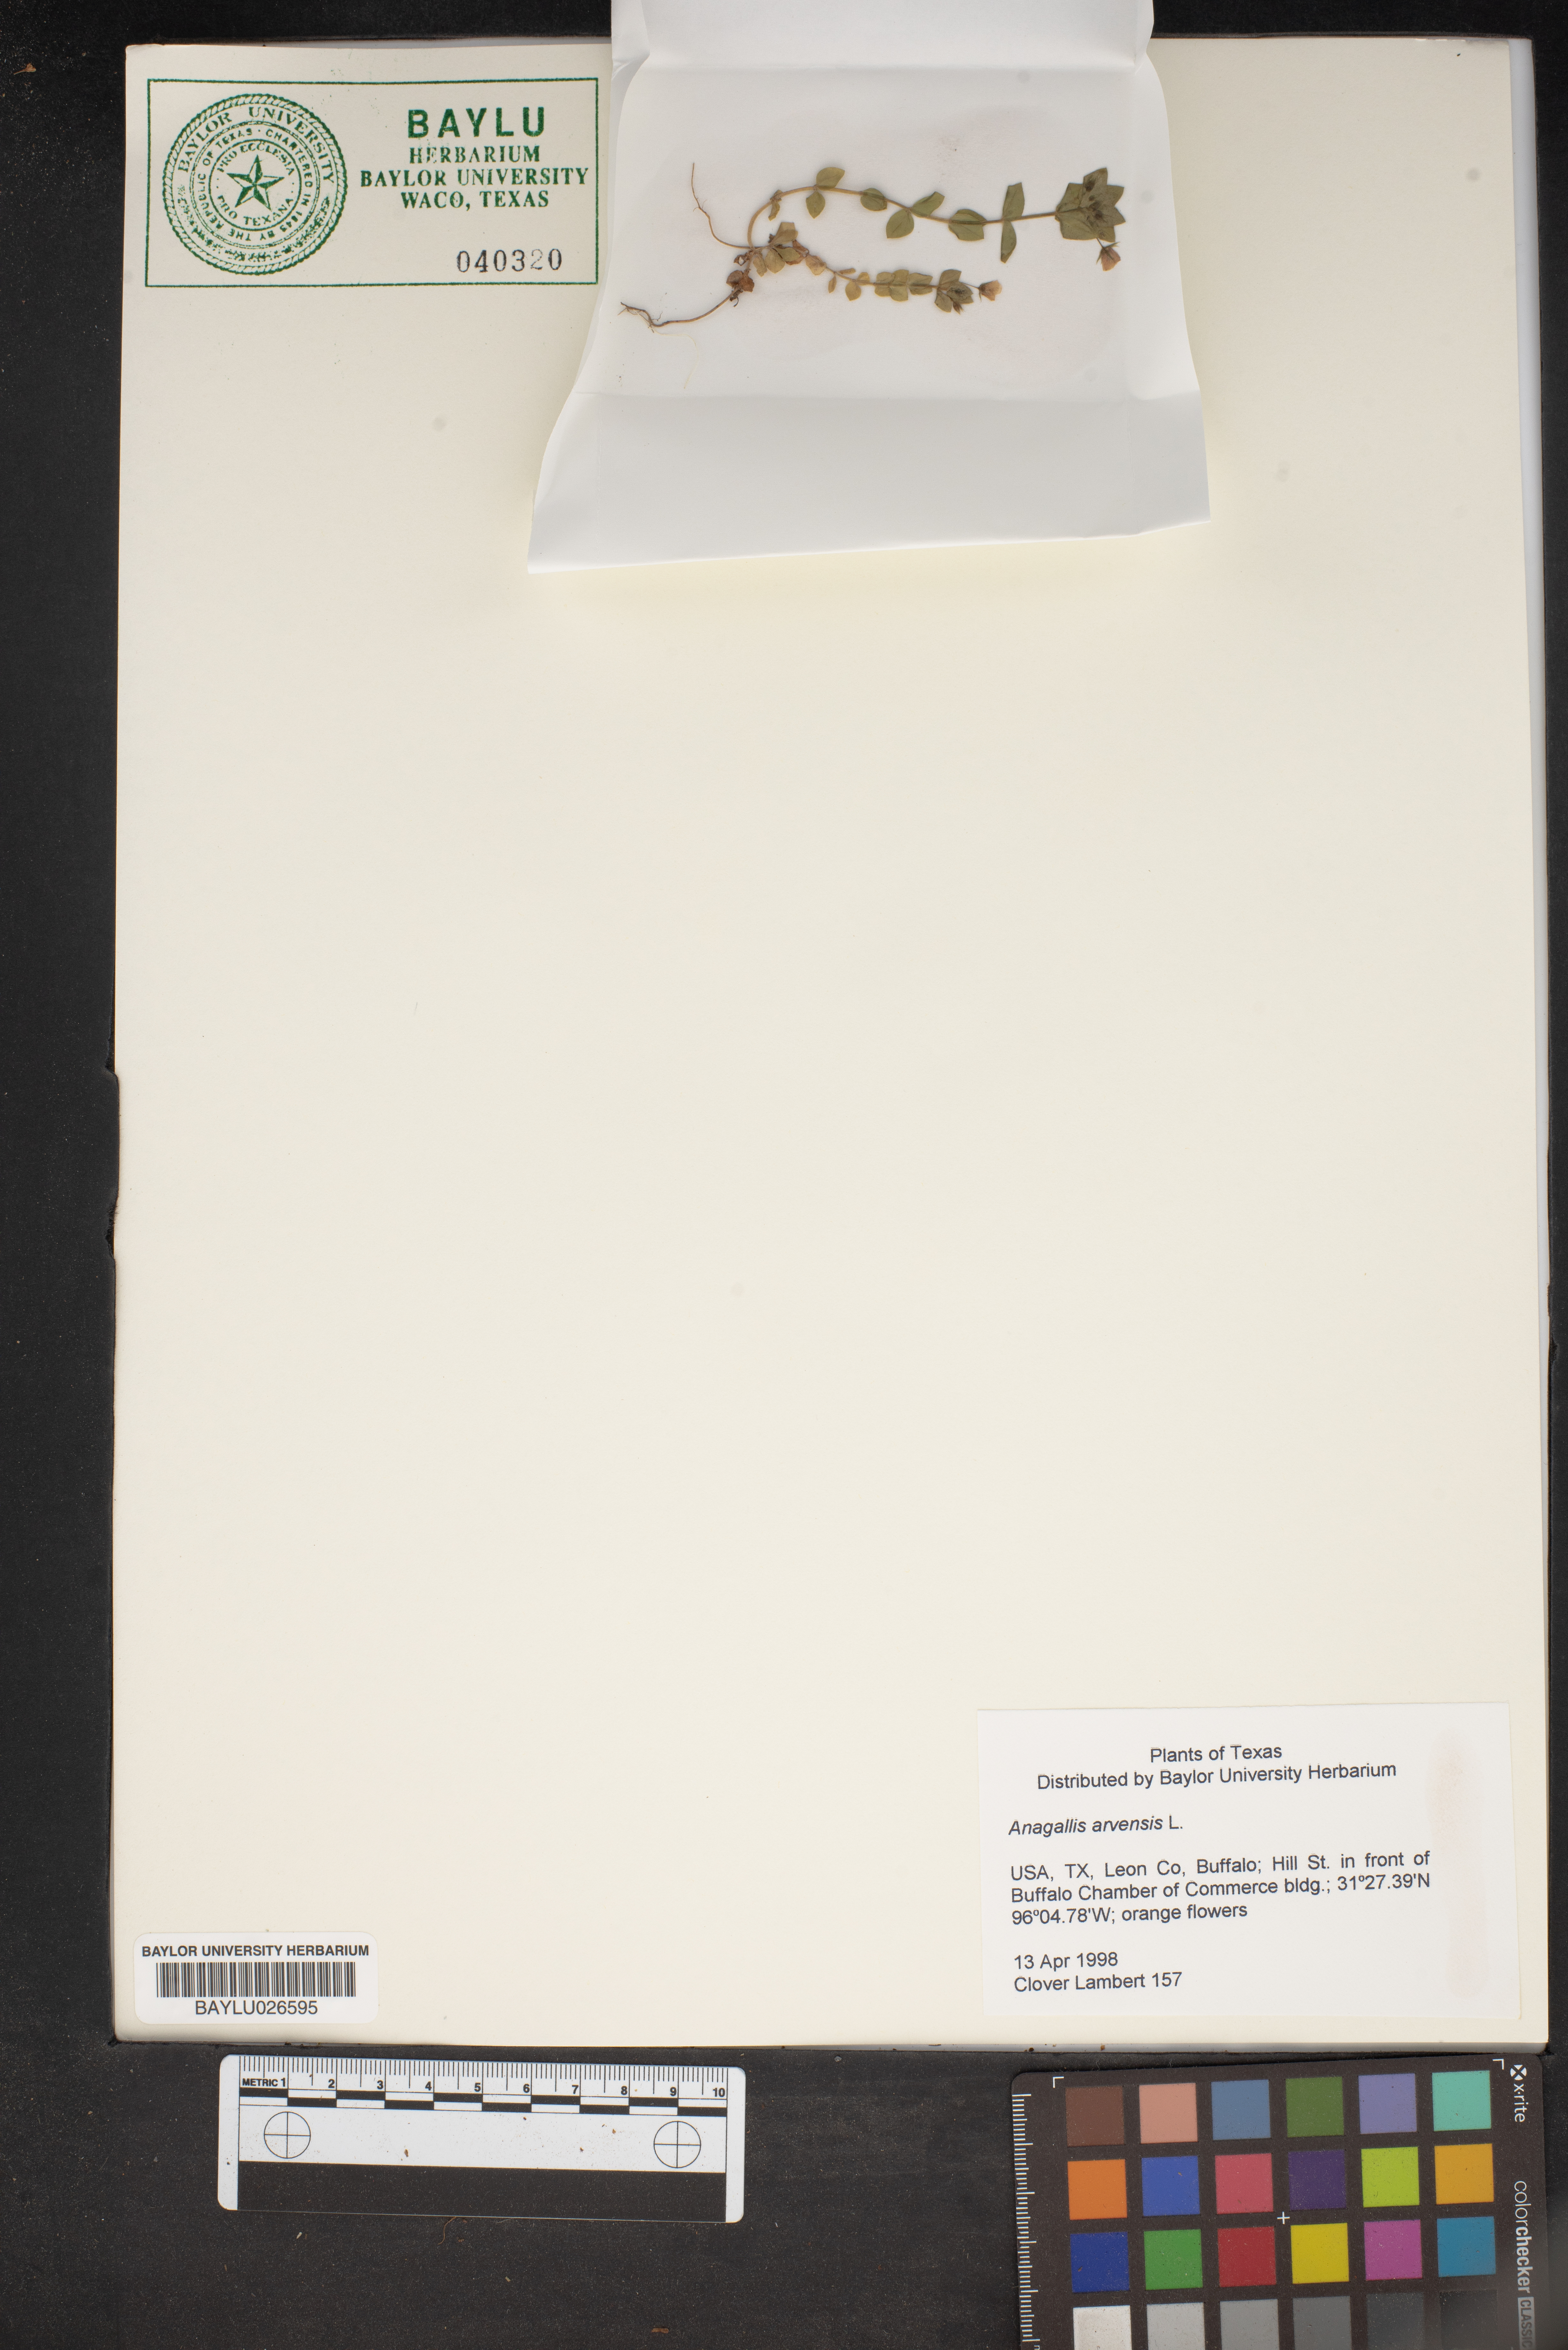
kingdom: Plantae
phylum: Tracheophyta
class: Magnoliopsida
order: Ericales
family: Primulaceae
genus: Lysimachia
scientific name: Lysimachia arvensis
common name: Scarlet pimpernel
